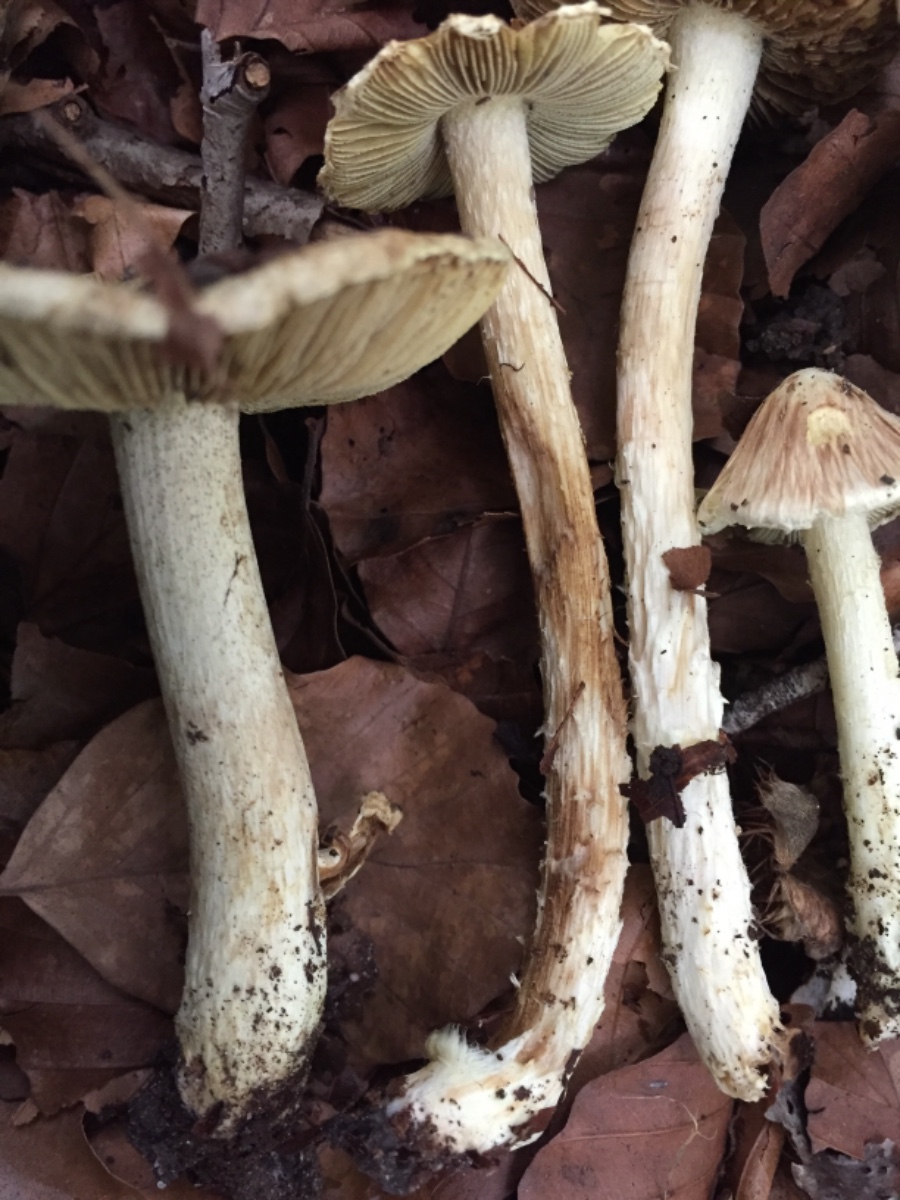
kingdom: Fungi
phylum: Basidiomycota
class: Agaricomycetes
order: Agaricales
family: Inocybaceae
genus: Inocybe
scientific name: Inocybe
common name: trævlhat
